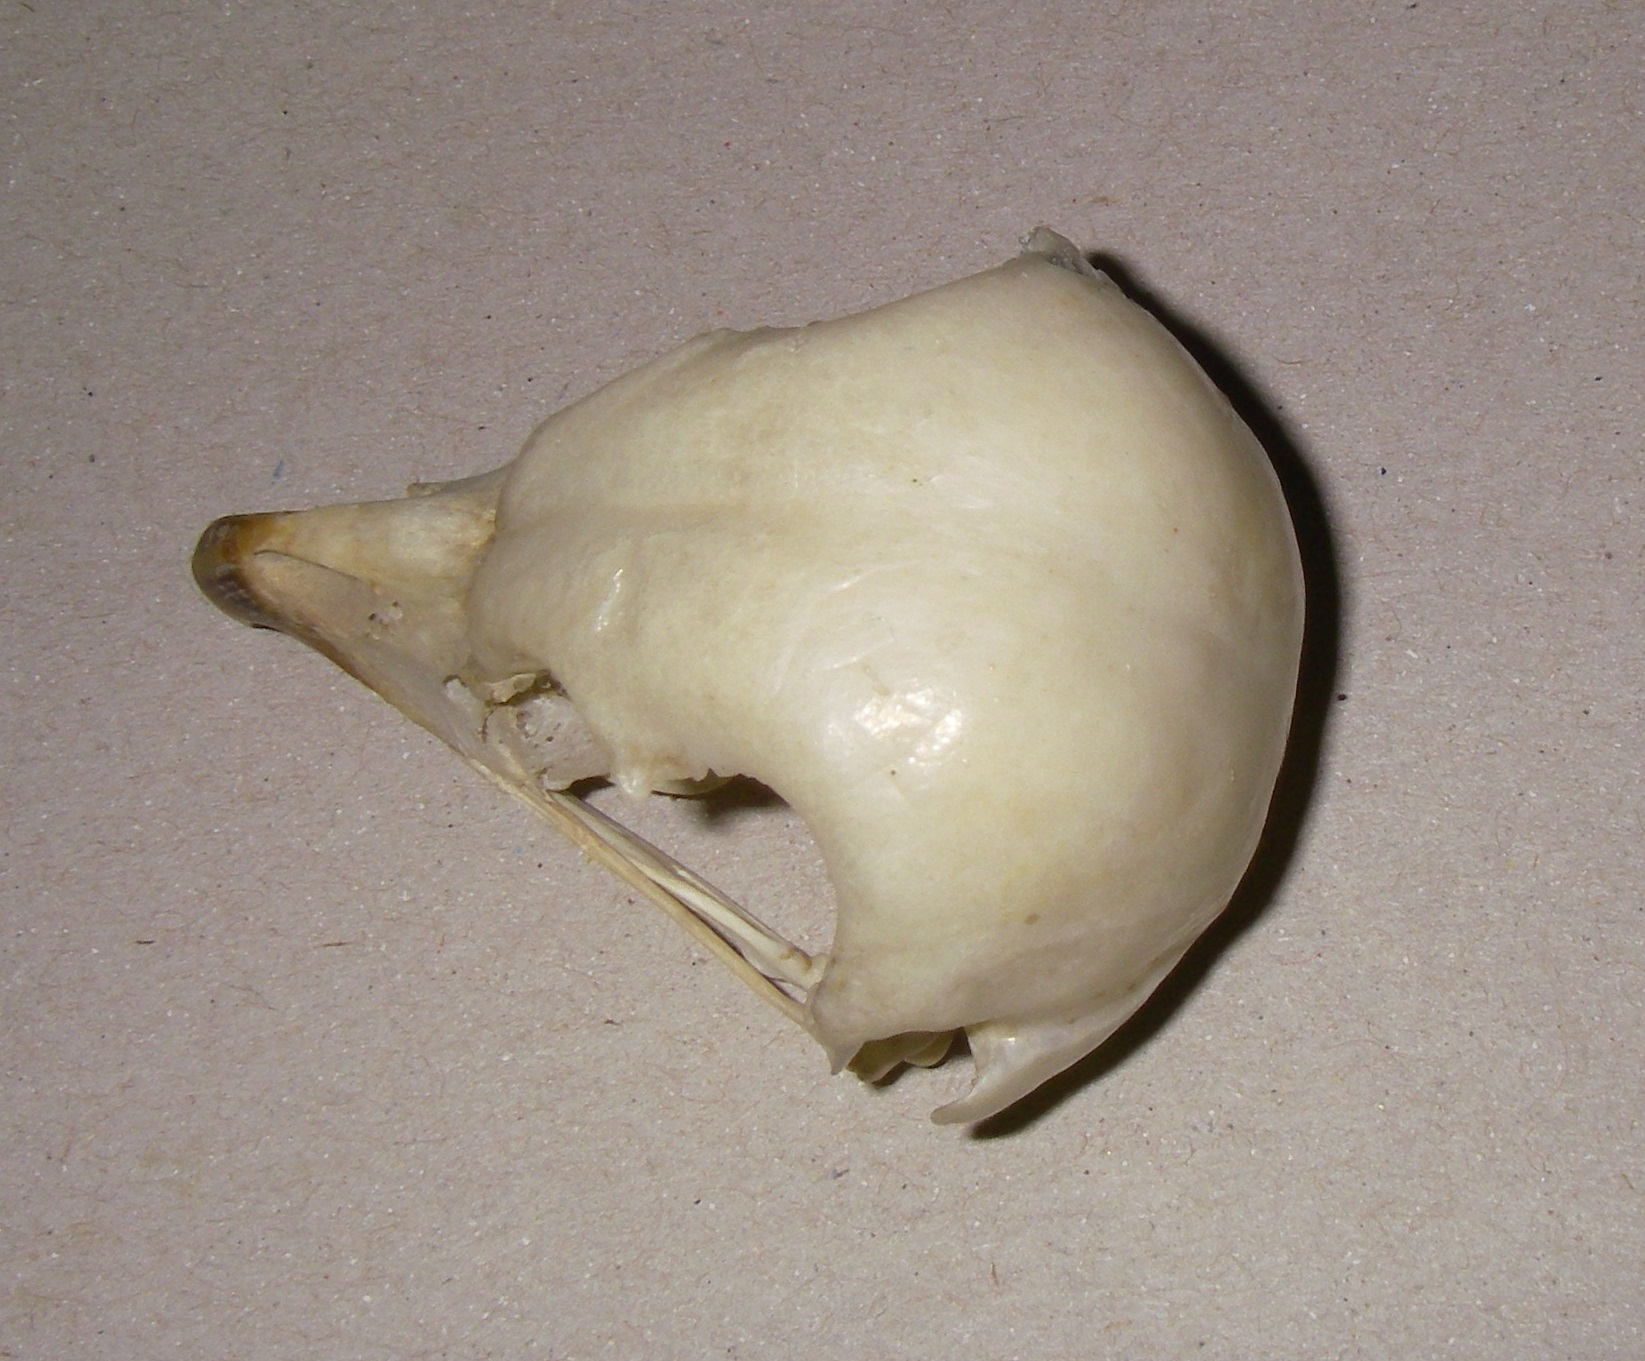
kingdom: Animalia
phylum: Chordata
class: Aves
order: Strigiformes
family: Strigidae
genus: Strix
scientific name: Strix aluco
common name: Tawny owl
